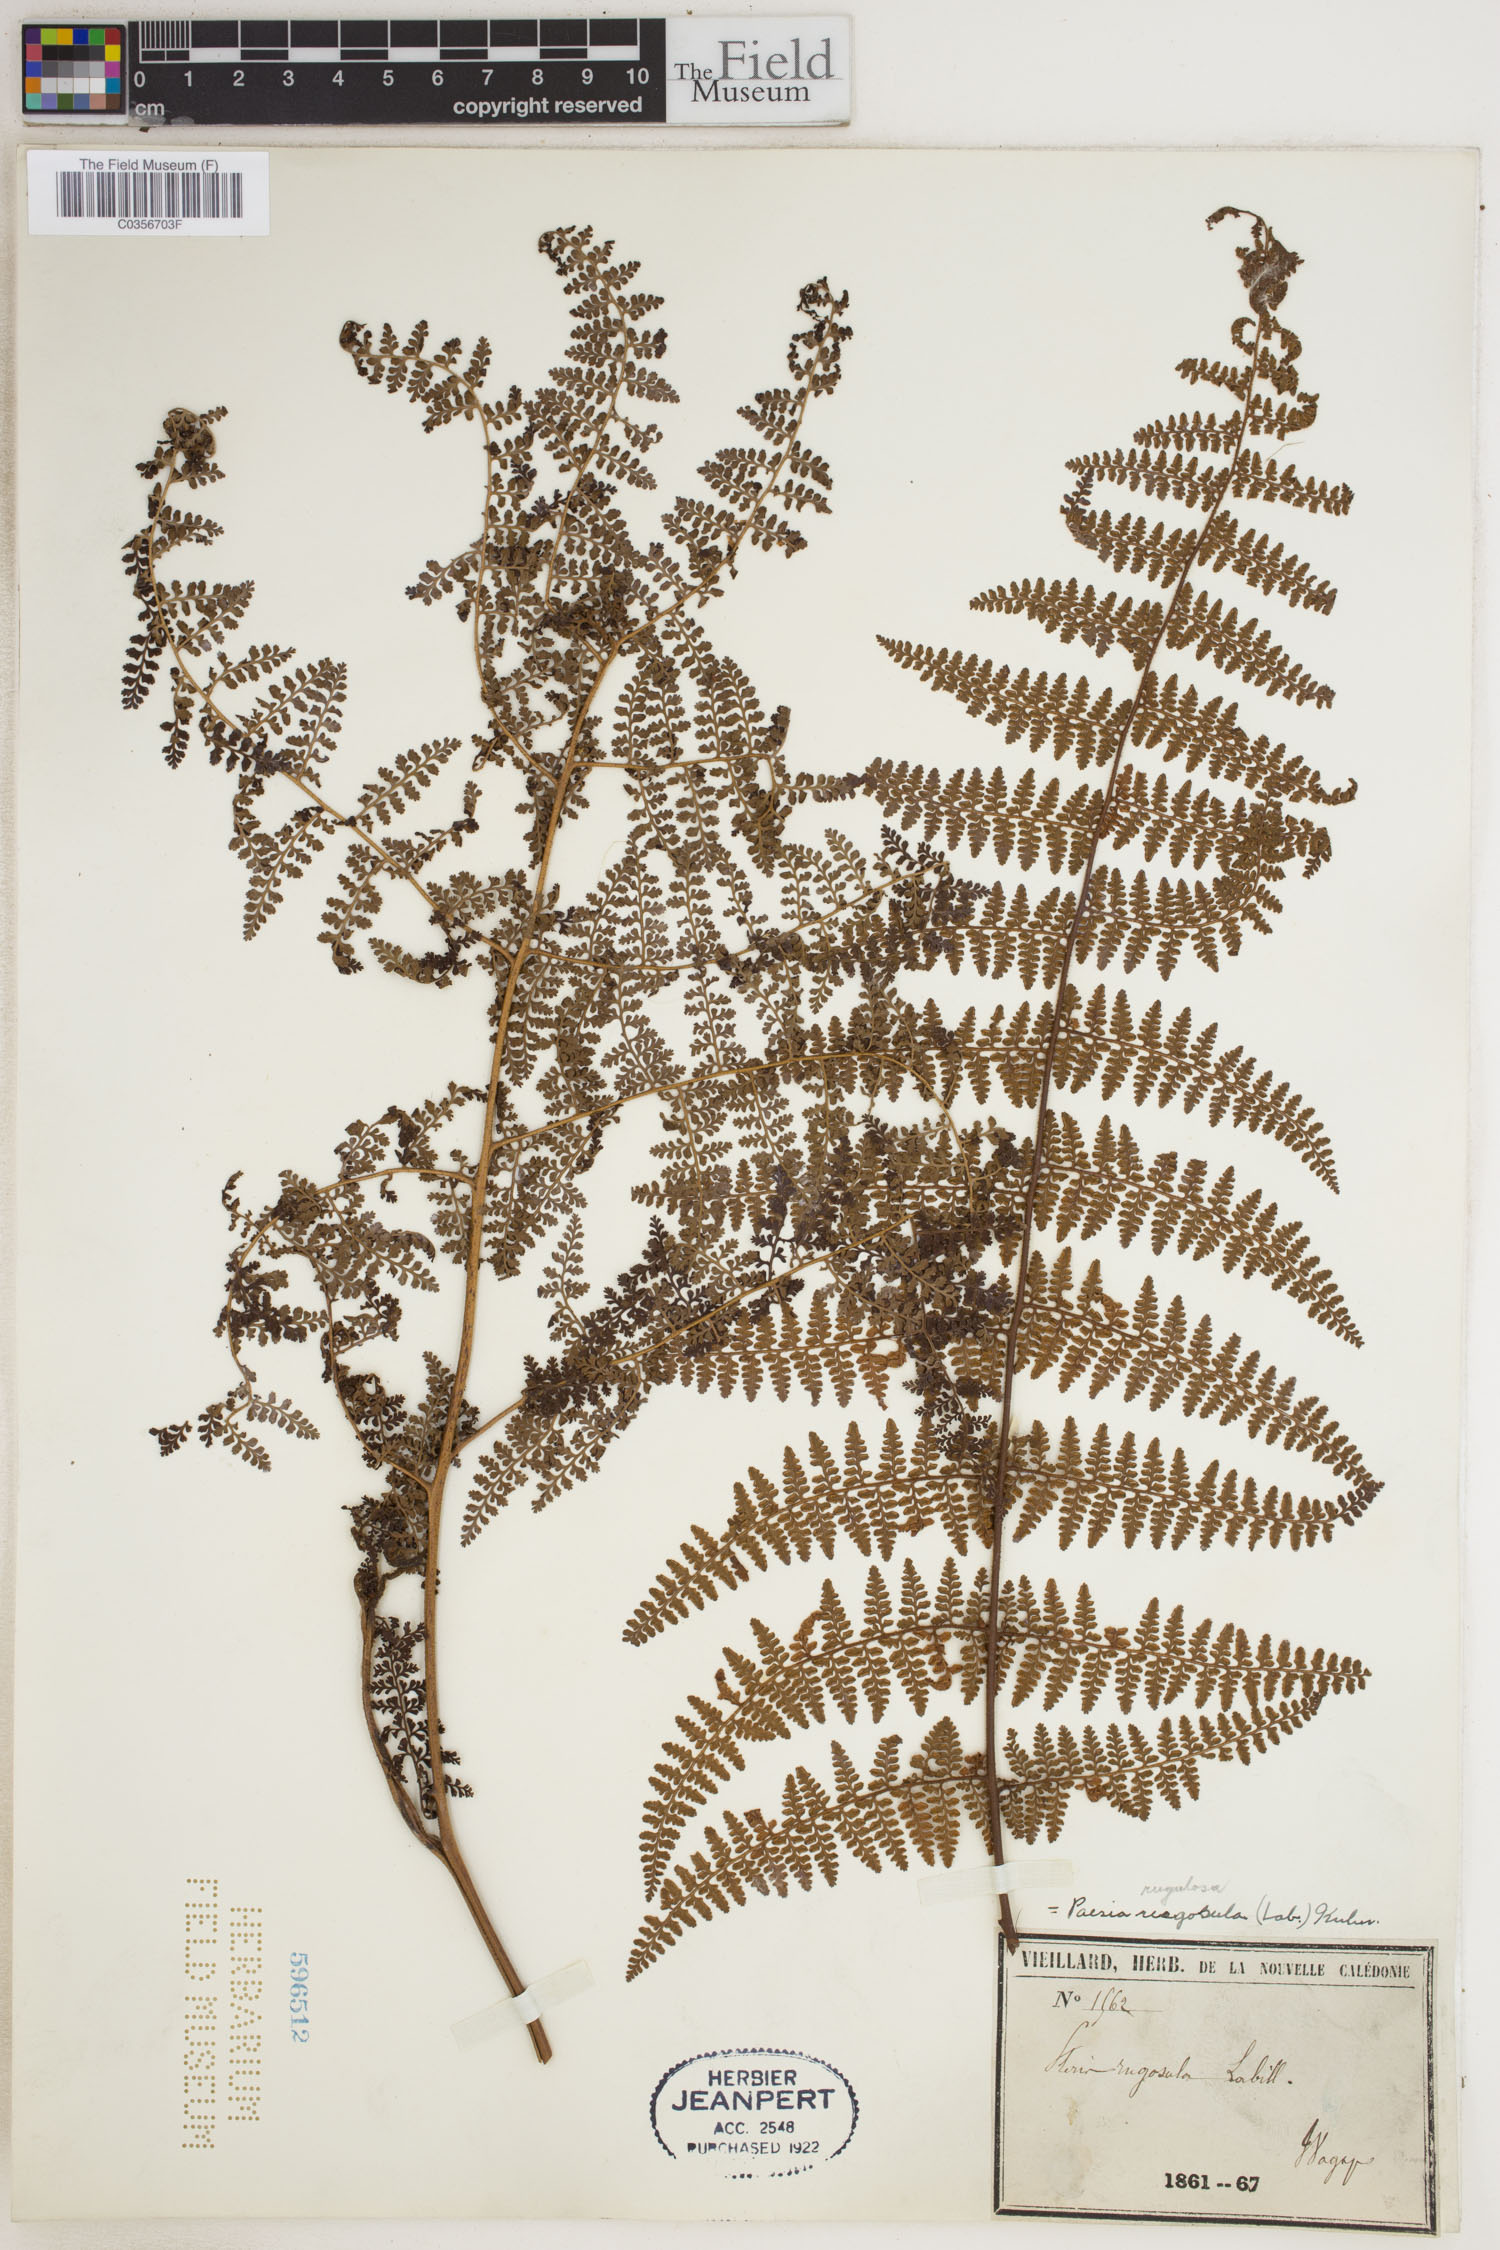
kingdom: Plantae
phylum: Tracheophyta
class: Polypodiopsida
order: Polypodiales
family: Dennstaedtiaceae
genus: Paesia
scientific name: Paesia rugulosa
